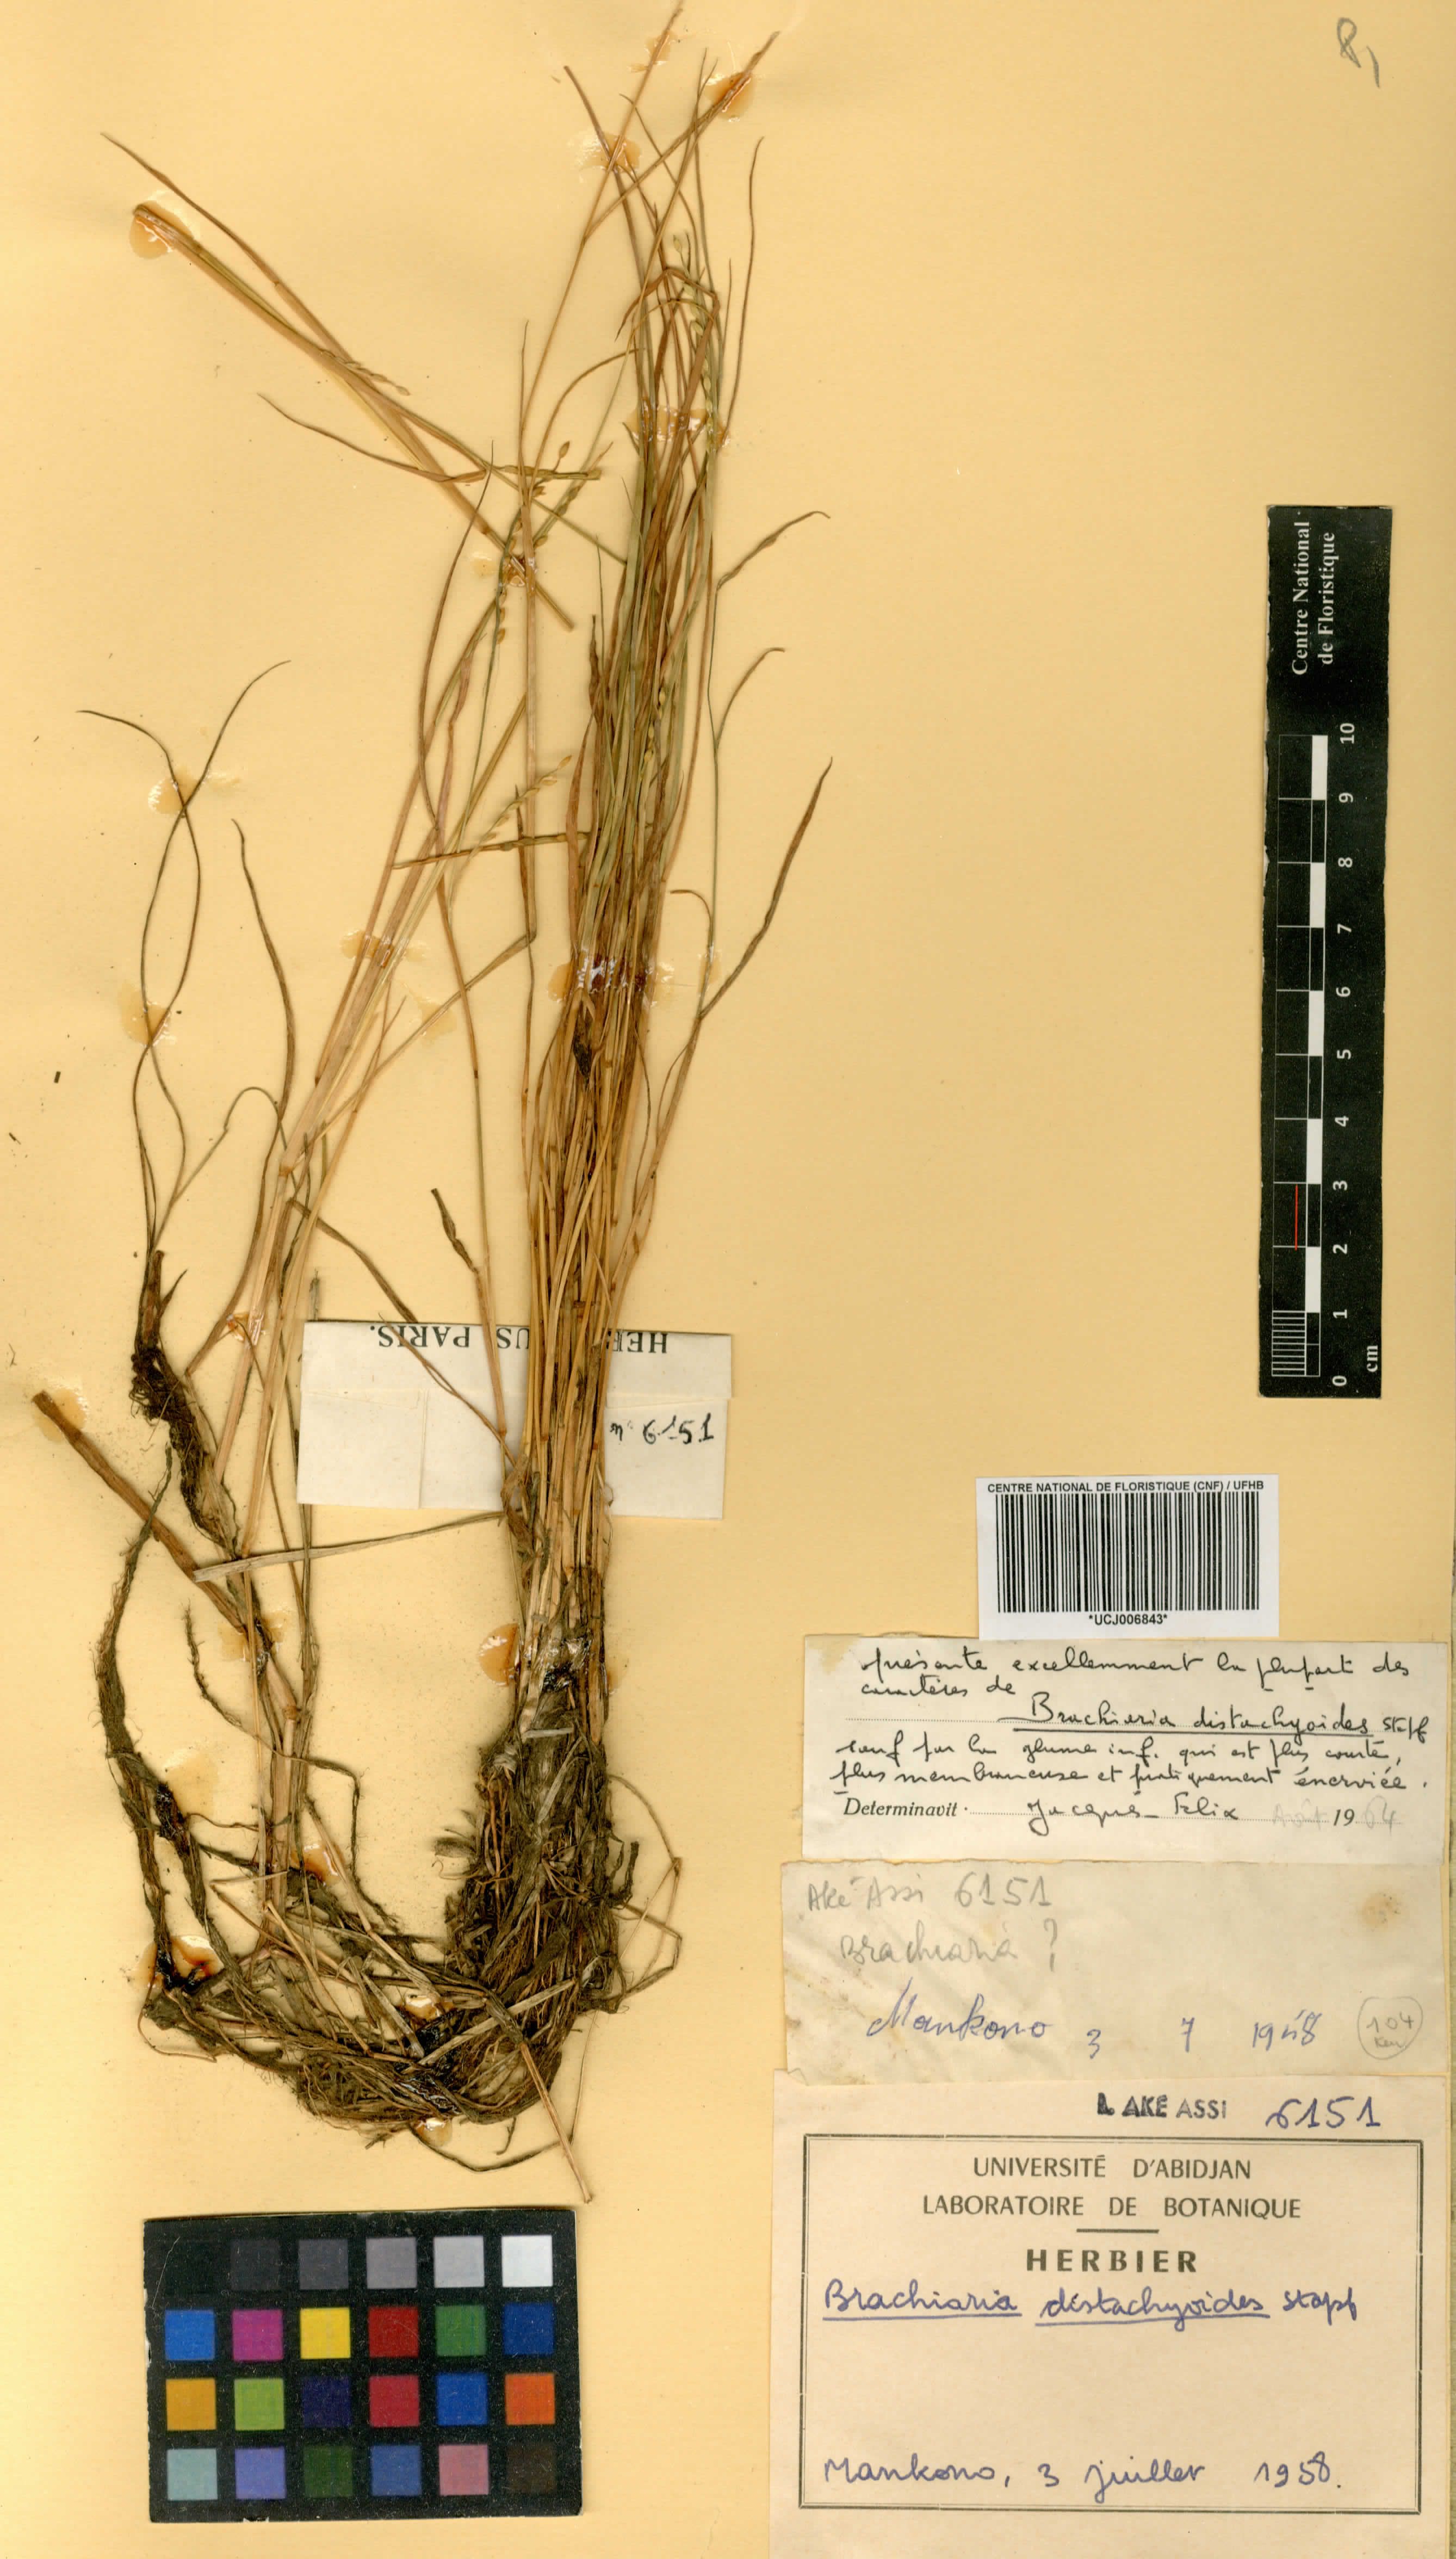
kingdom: Plantae
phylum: Tracheophyta
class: Liliopsida
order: Poales
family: Poaceae
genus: Urochloa
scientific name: Urochloa villosa
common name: Hairy signalgrass
